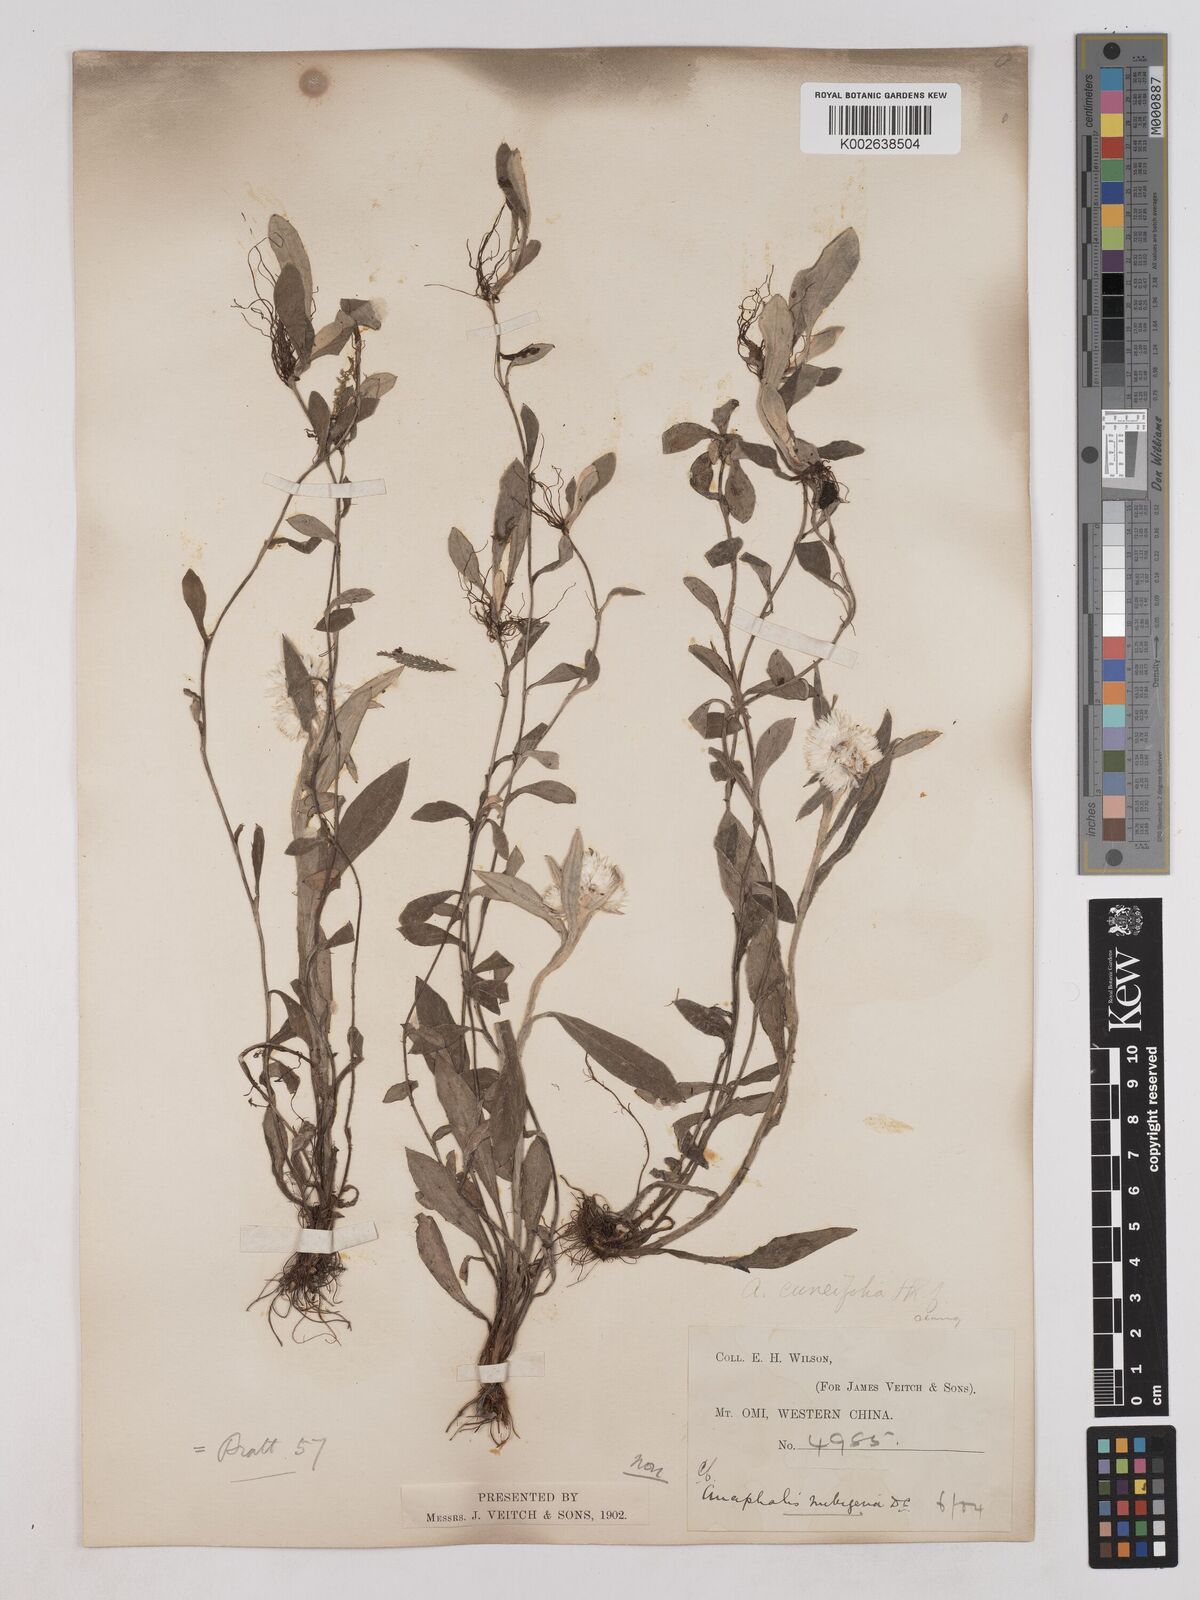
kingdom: Plantae
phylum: Tracheophyta
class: Magnoliopsida
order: Asterales
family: Asteraceae
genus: Anaphalis
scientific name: Anaphalis nepalensis
